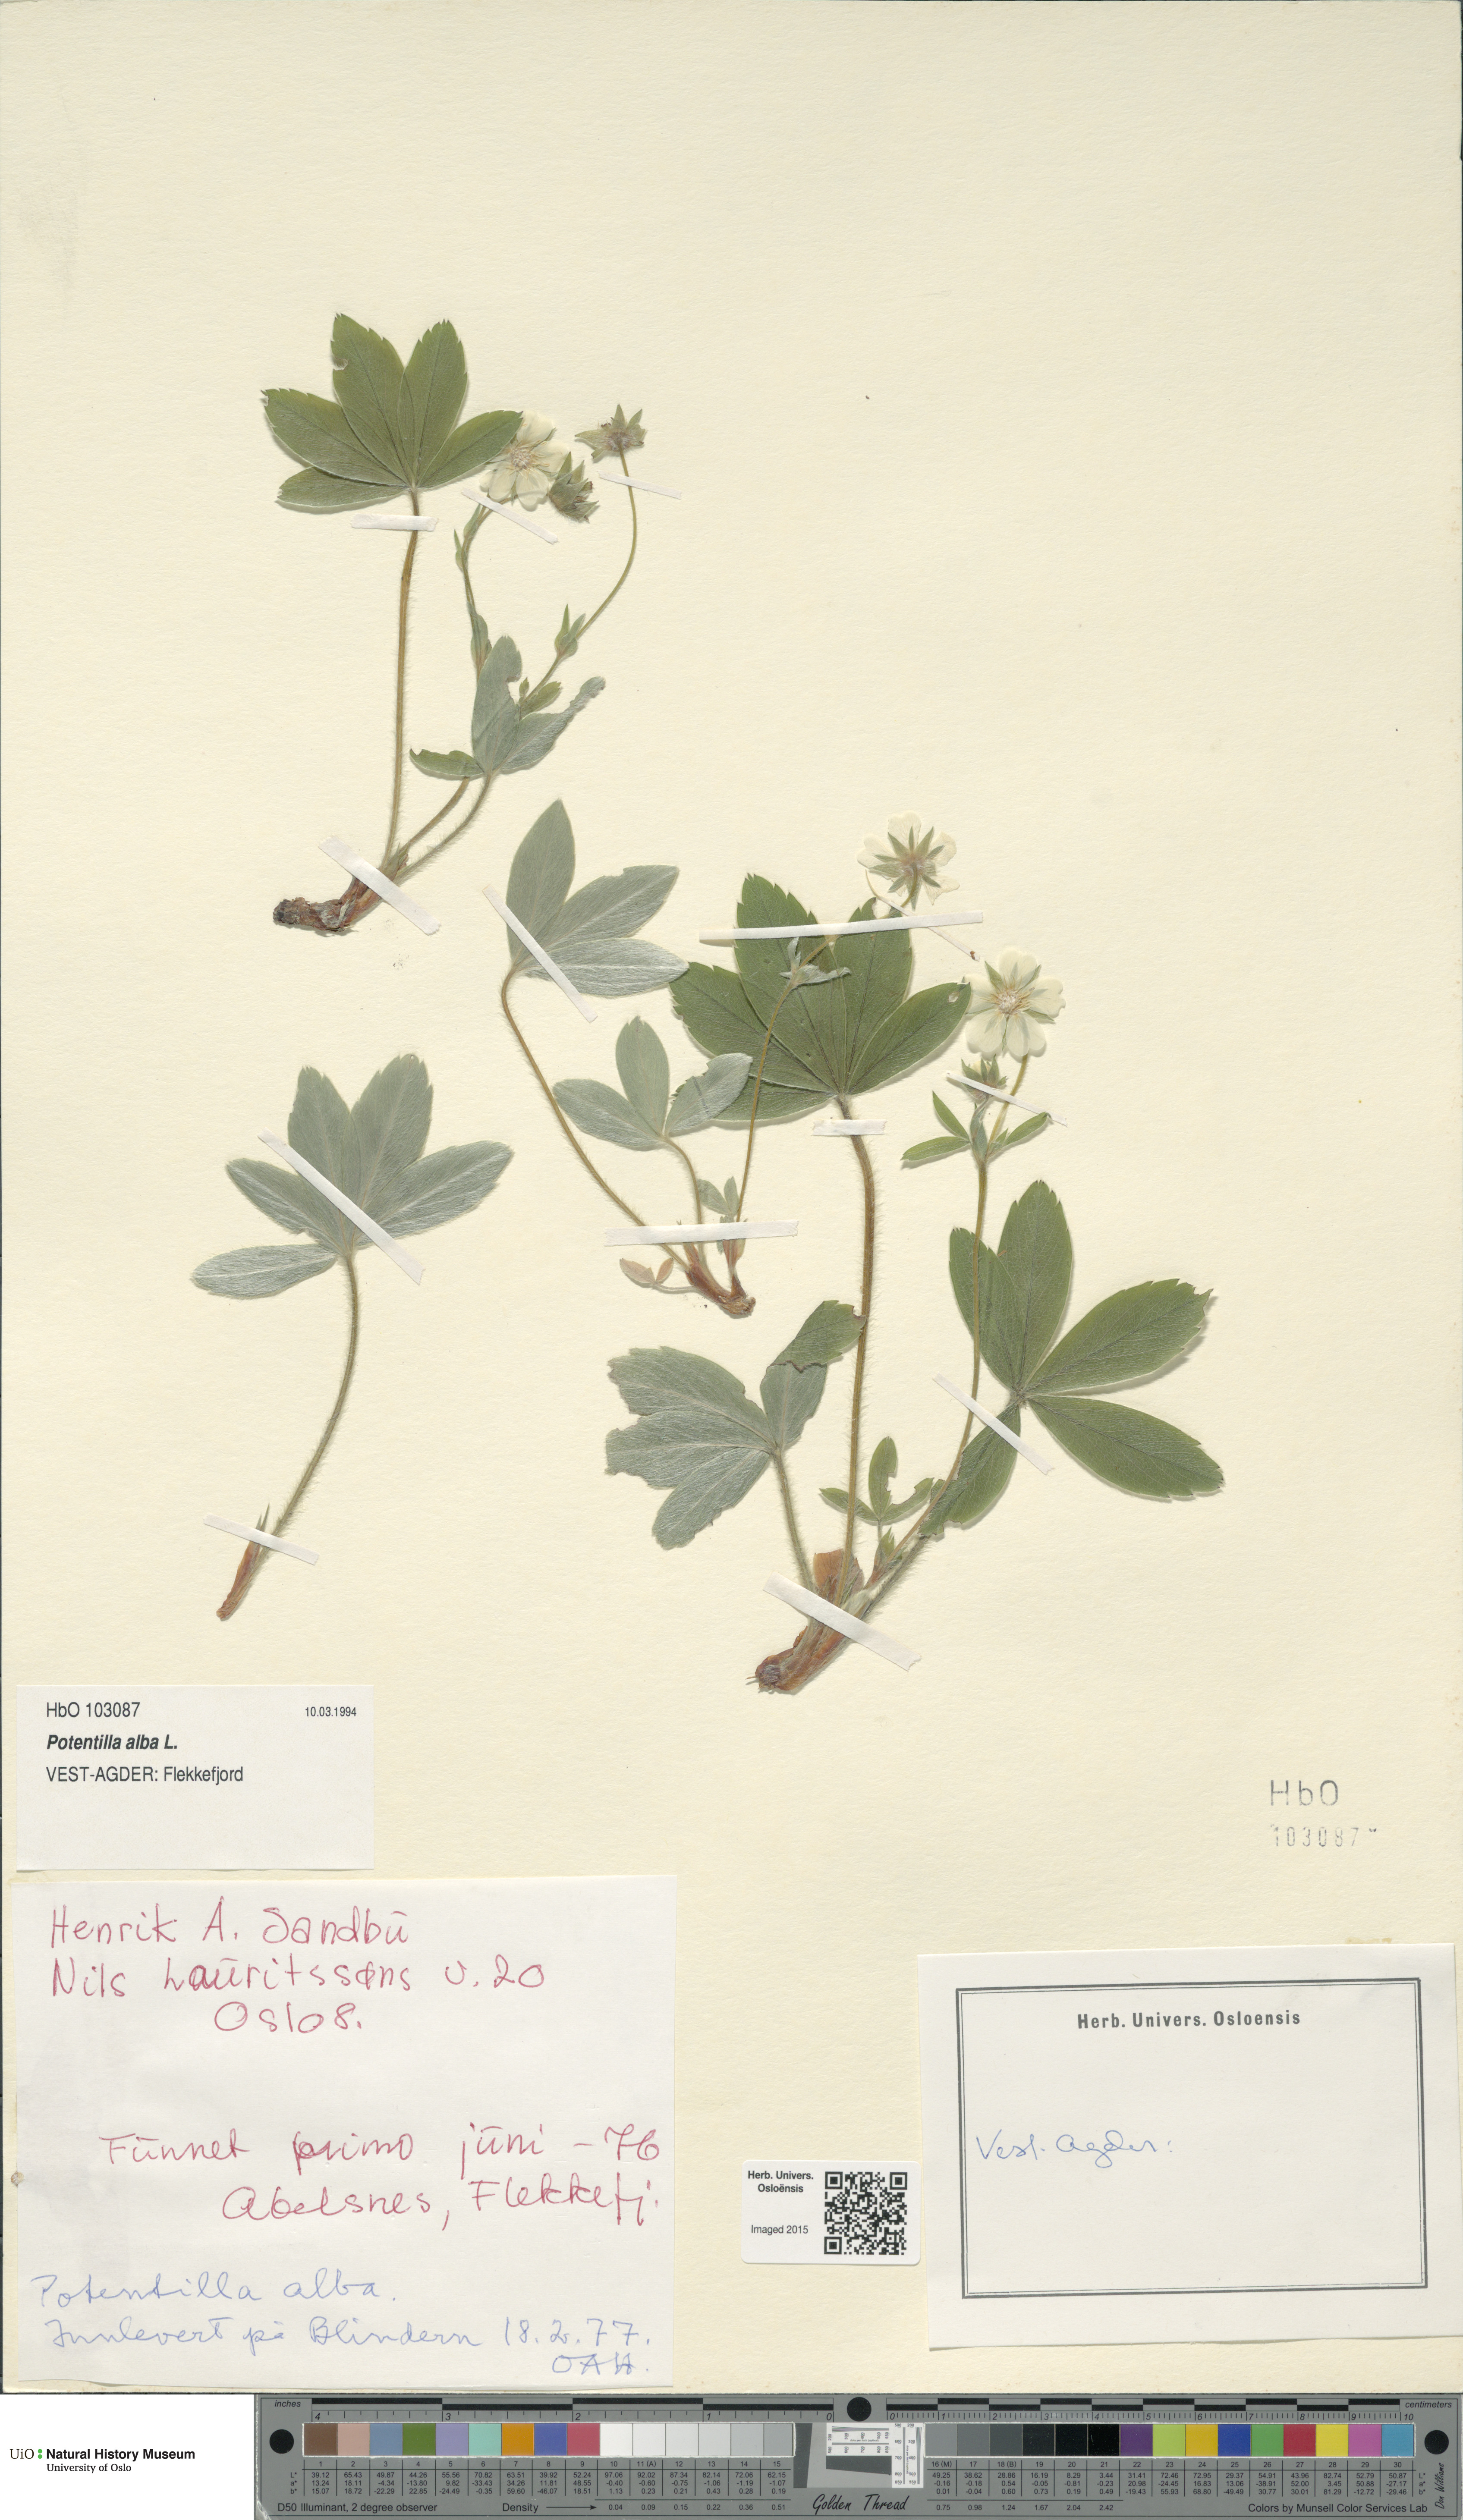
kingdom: Plantae
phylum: Tracheophyta
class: Magnoliopsida
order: Rosales
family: Rosaceae
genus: Potentilla
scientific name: Potentilla alba
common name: White cinquefoil
